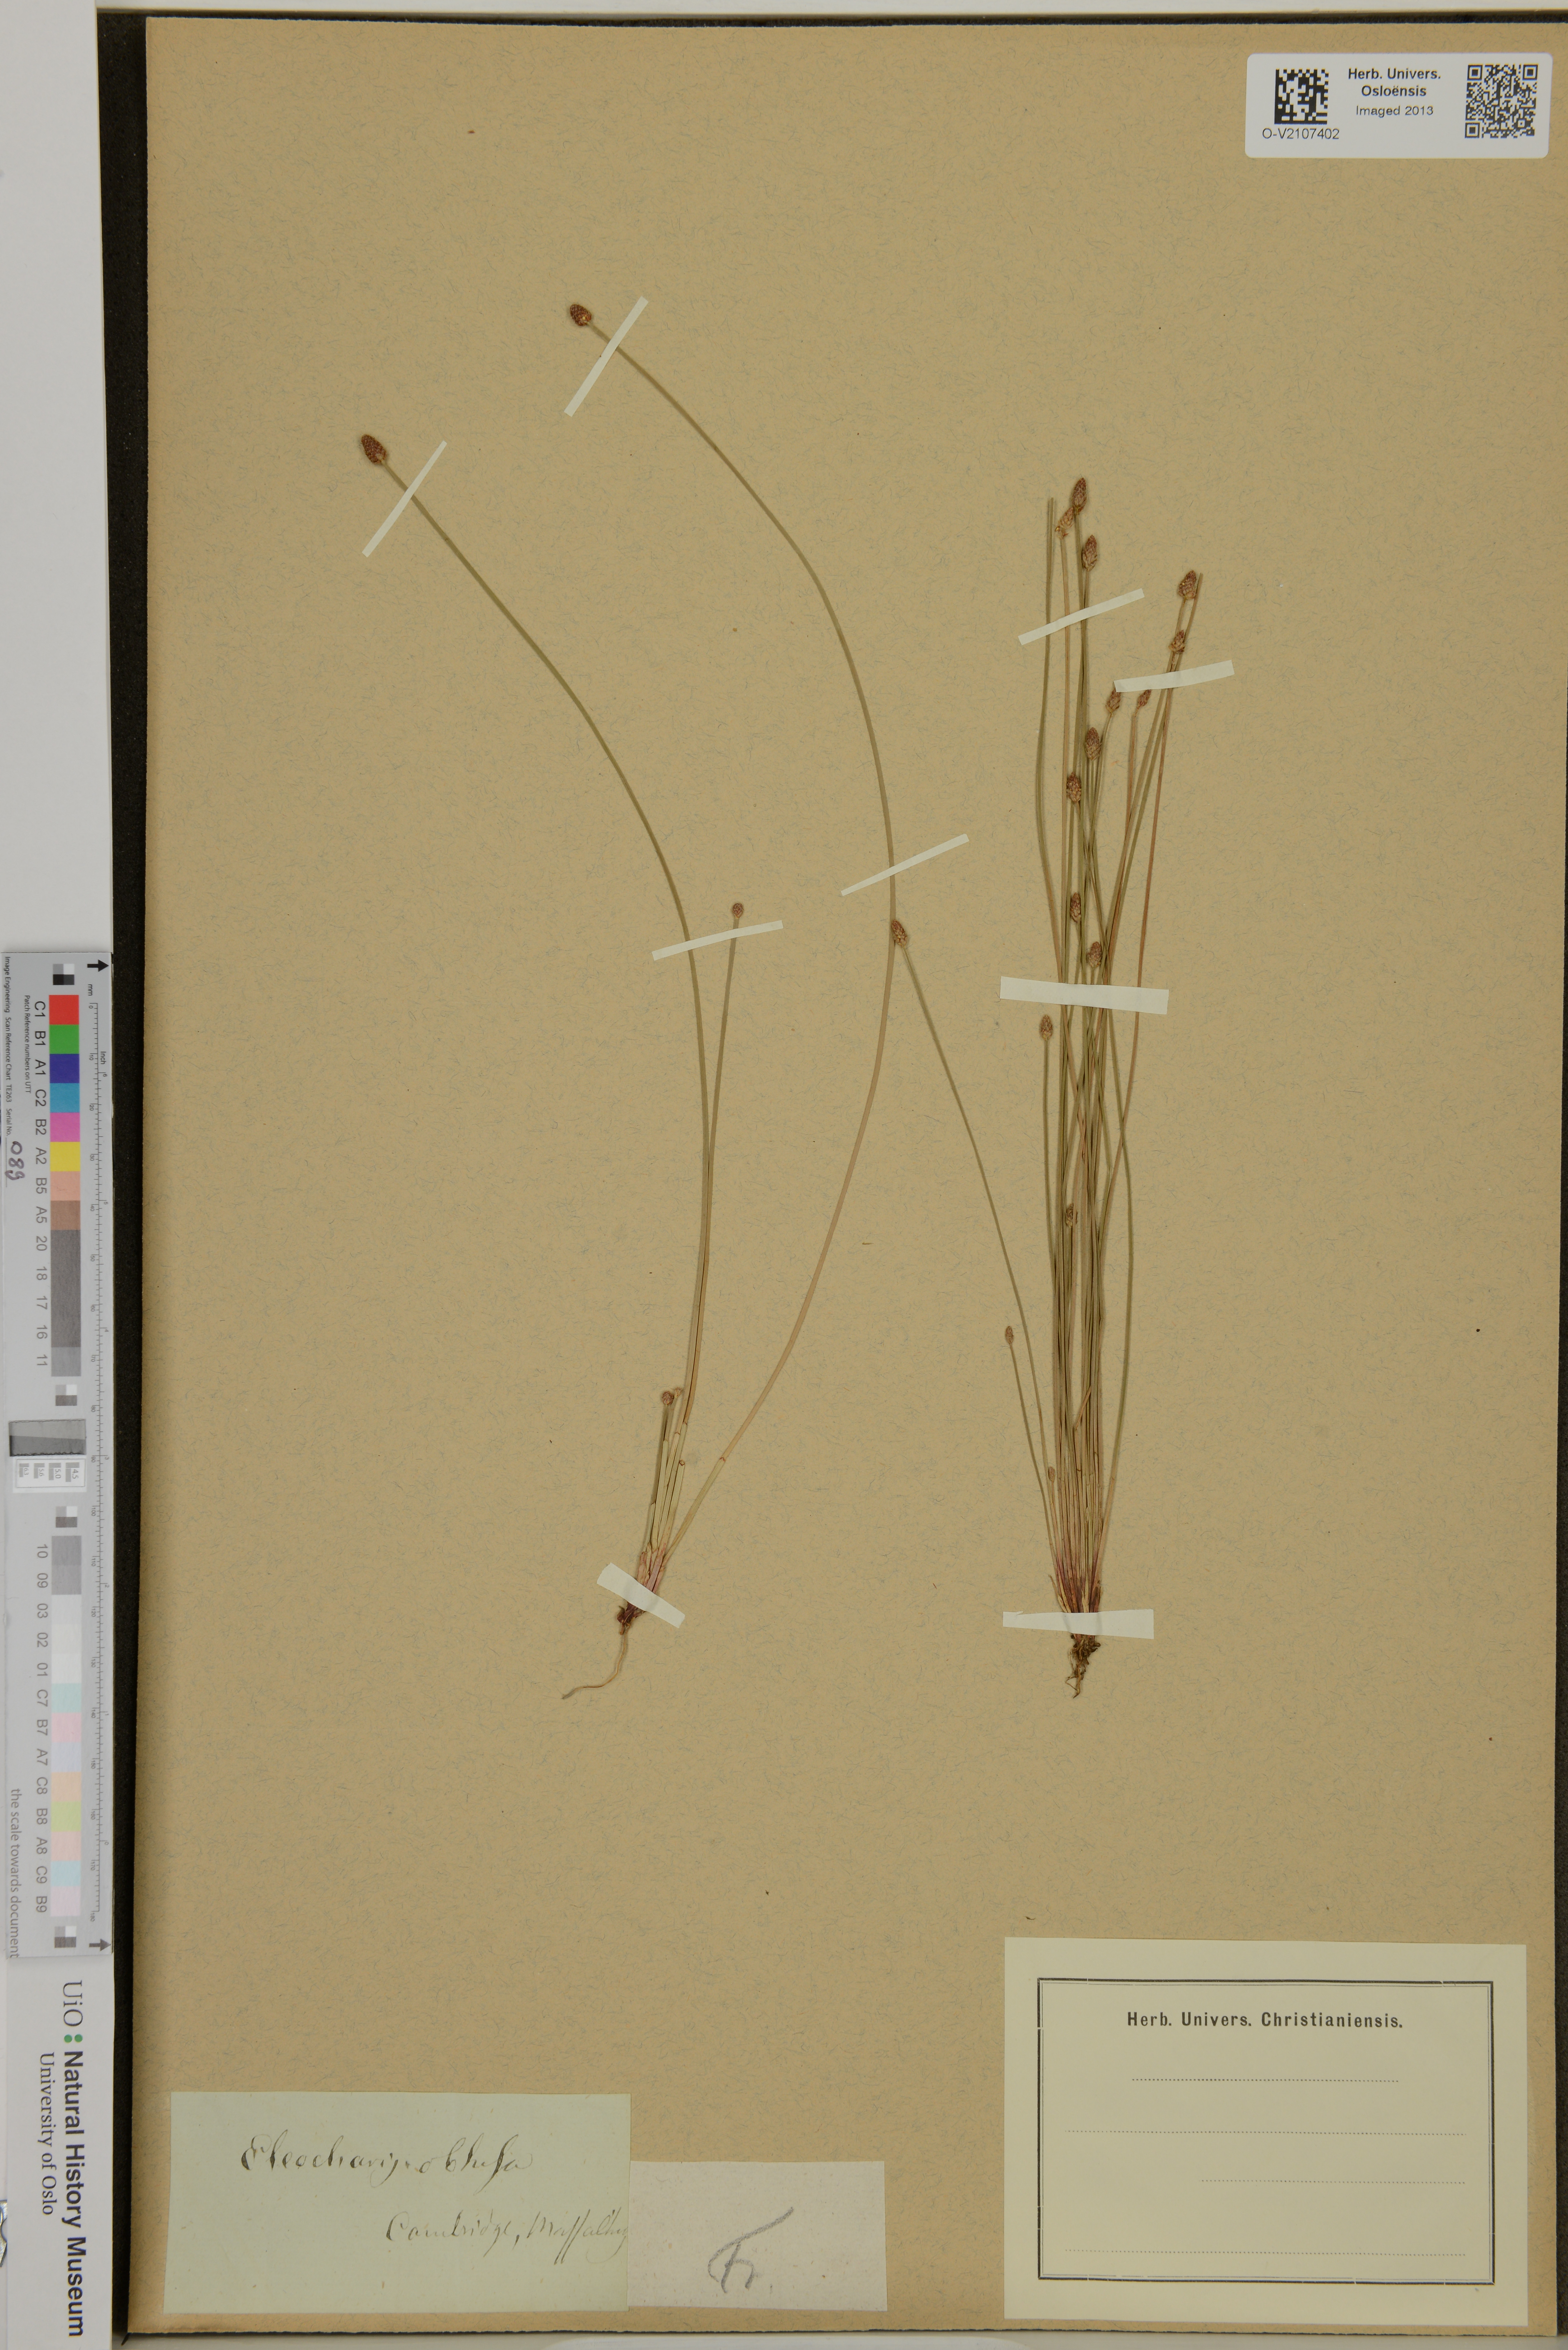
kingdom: Plantae
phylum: Tracheophyta
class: Liliopsida
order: Poales
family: Cyperaceae
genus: Eleocharis
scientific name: Eleocharis obtusa
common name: Blunt spikerush
